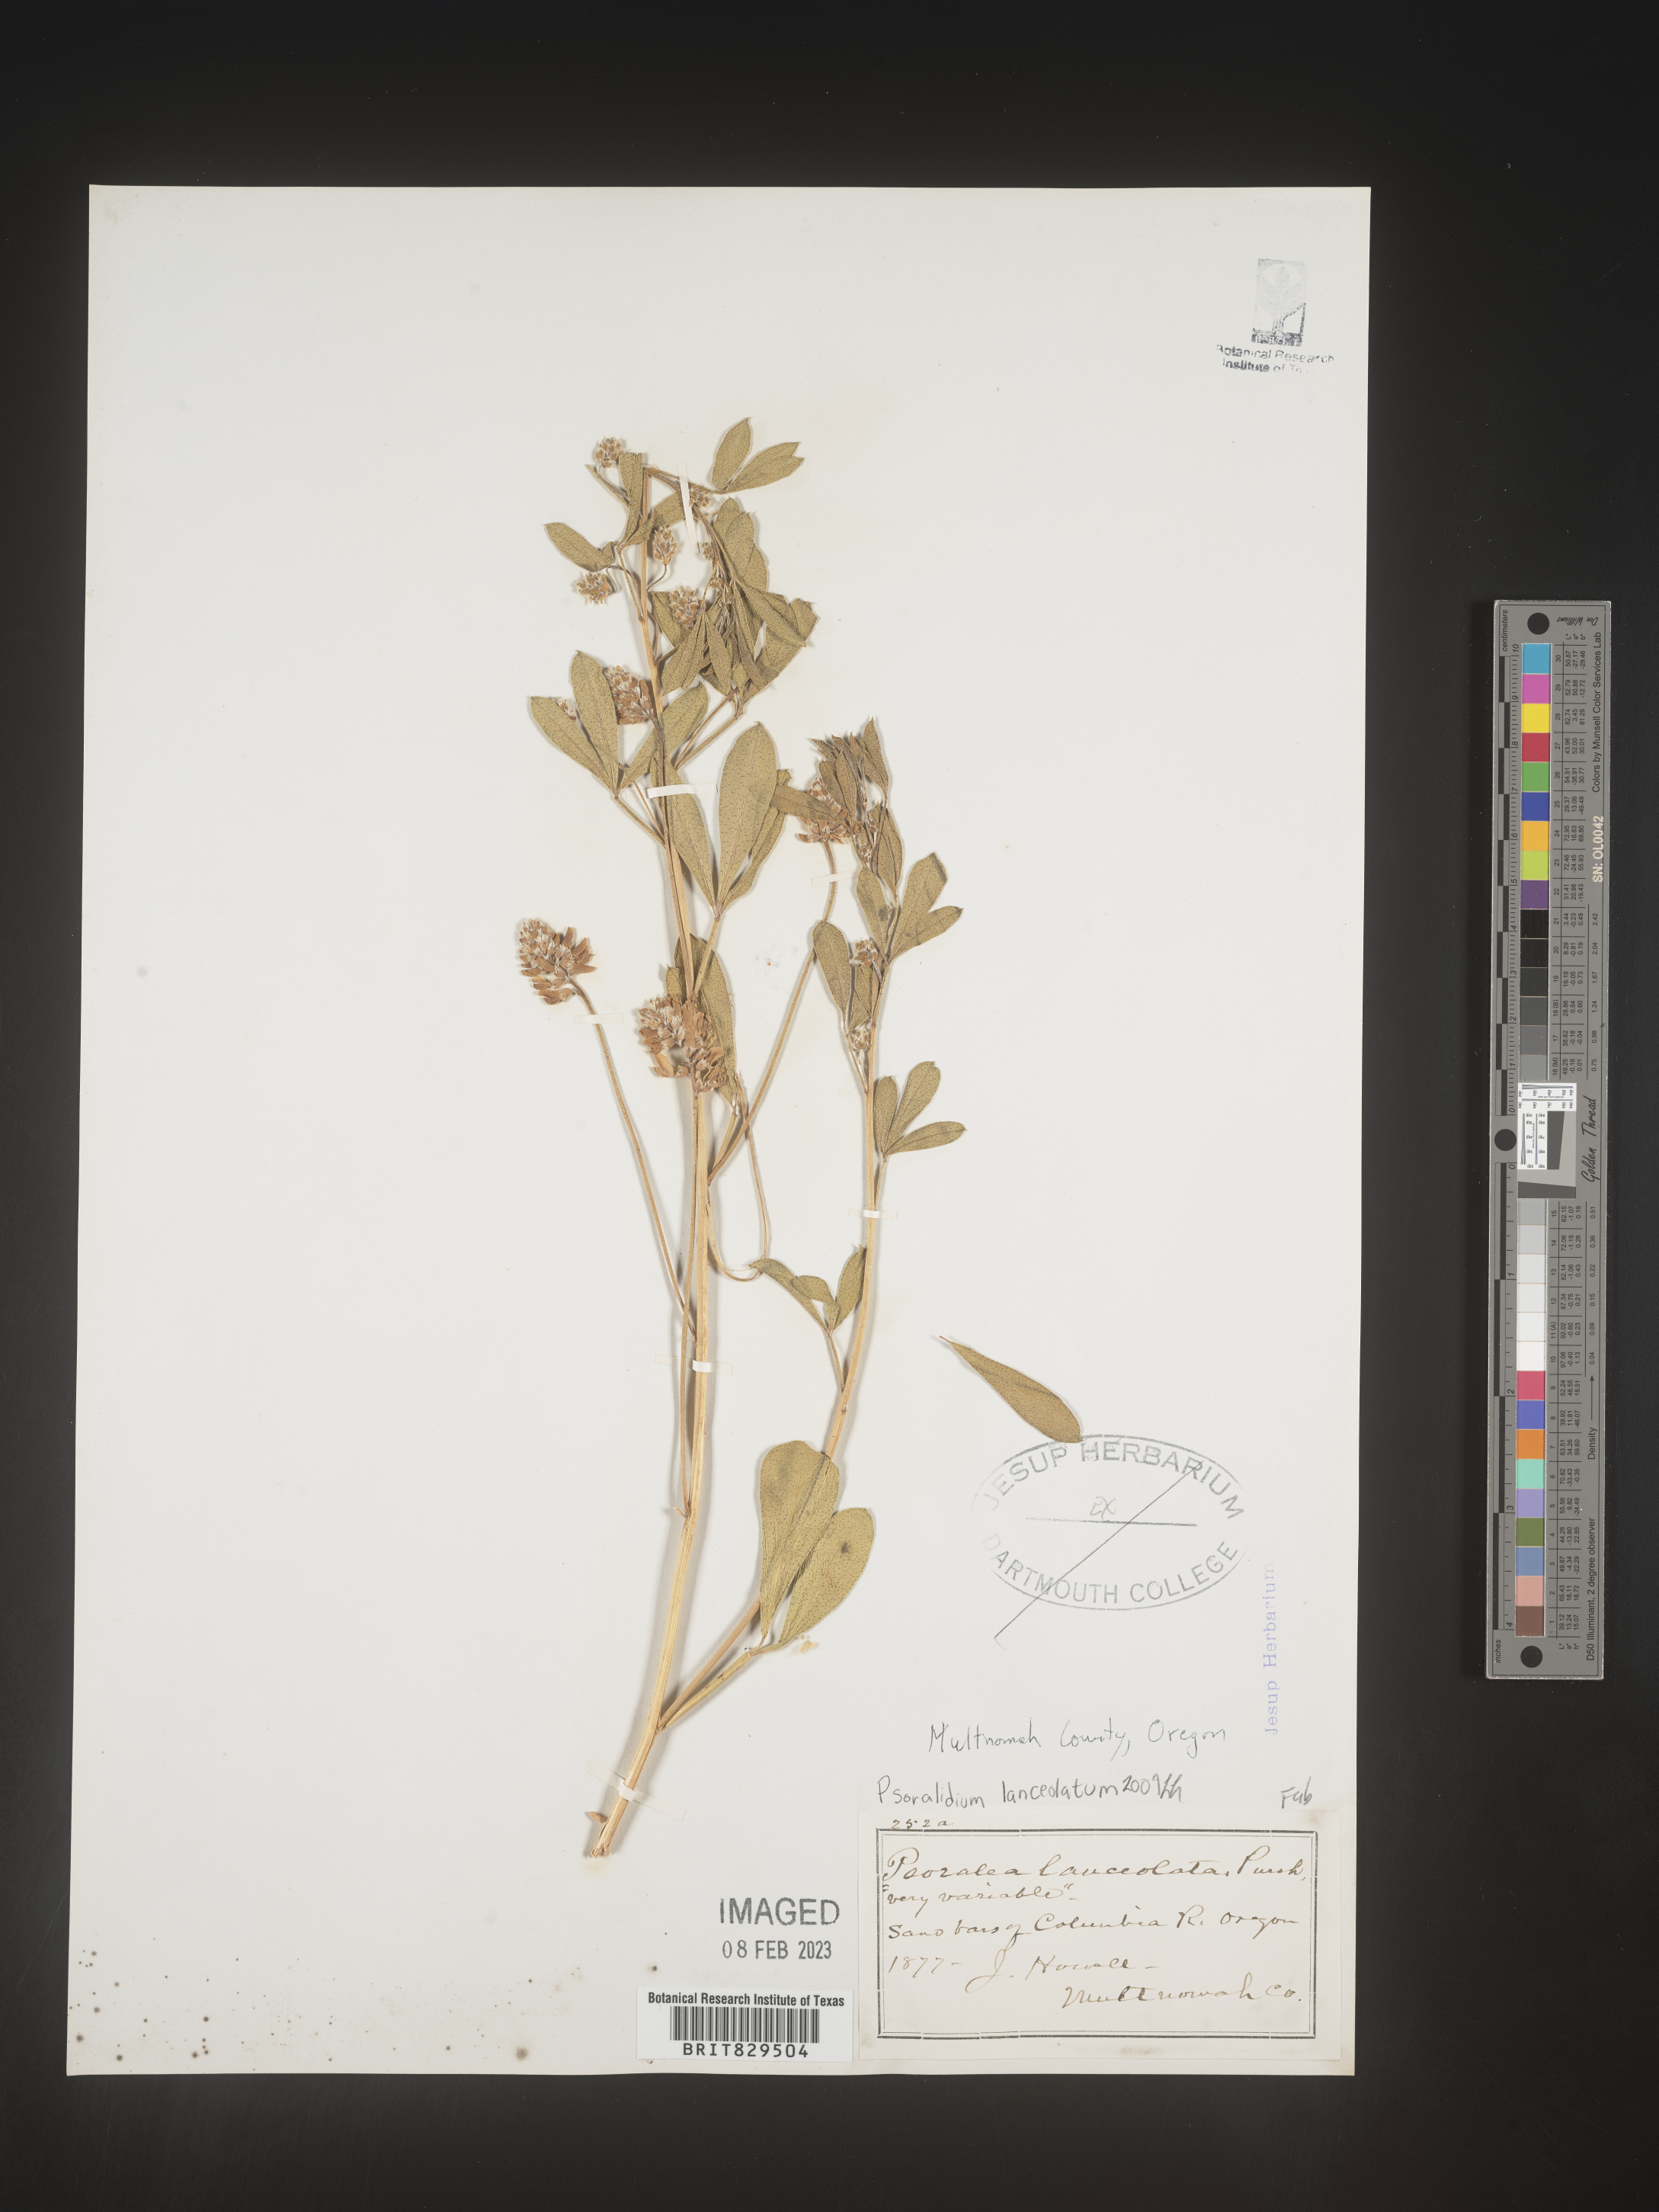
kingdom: Plantae
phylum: Tracheophyta
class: Magnoliopsida
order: Fabales
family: Fabaceae
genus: Ladeania
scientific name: Ladeania lanceolata
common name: Dune scurf-pea
